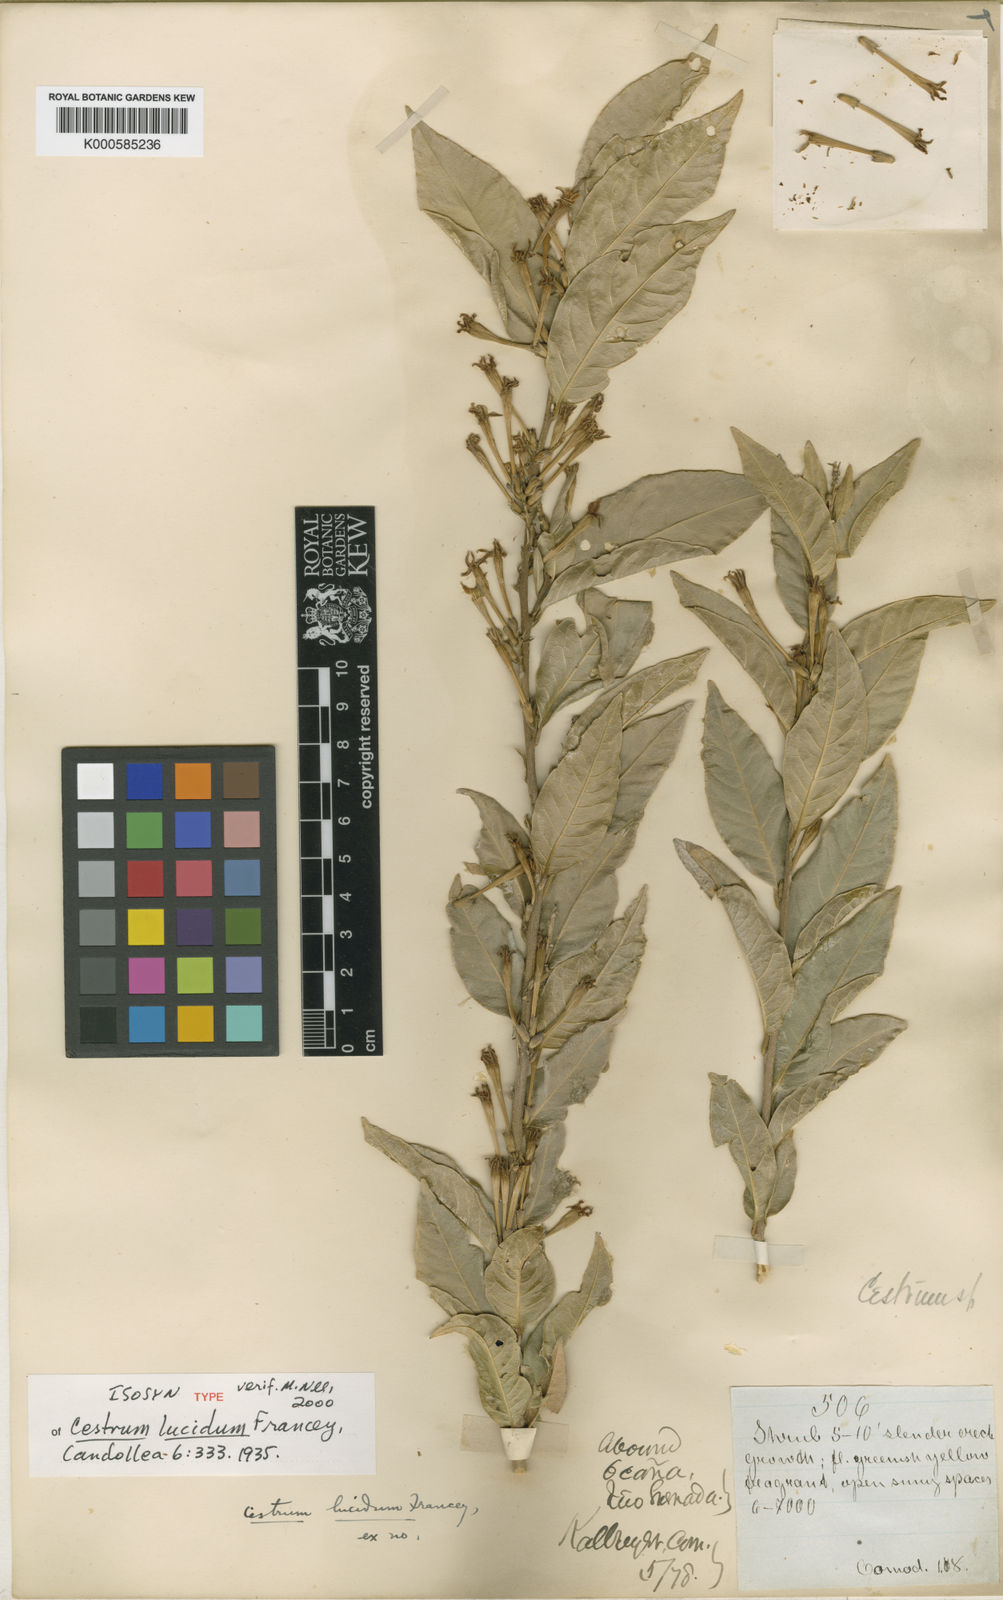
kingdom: Plantae
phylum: Tracheophyta
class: Magnoliopsida
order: Solanales
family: Solanaceae
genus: Cestrum
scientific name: Cestrum lucidum
